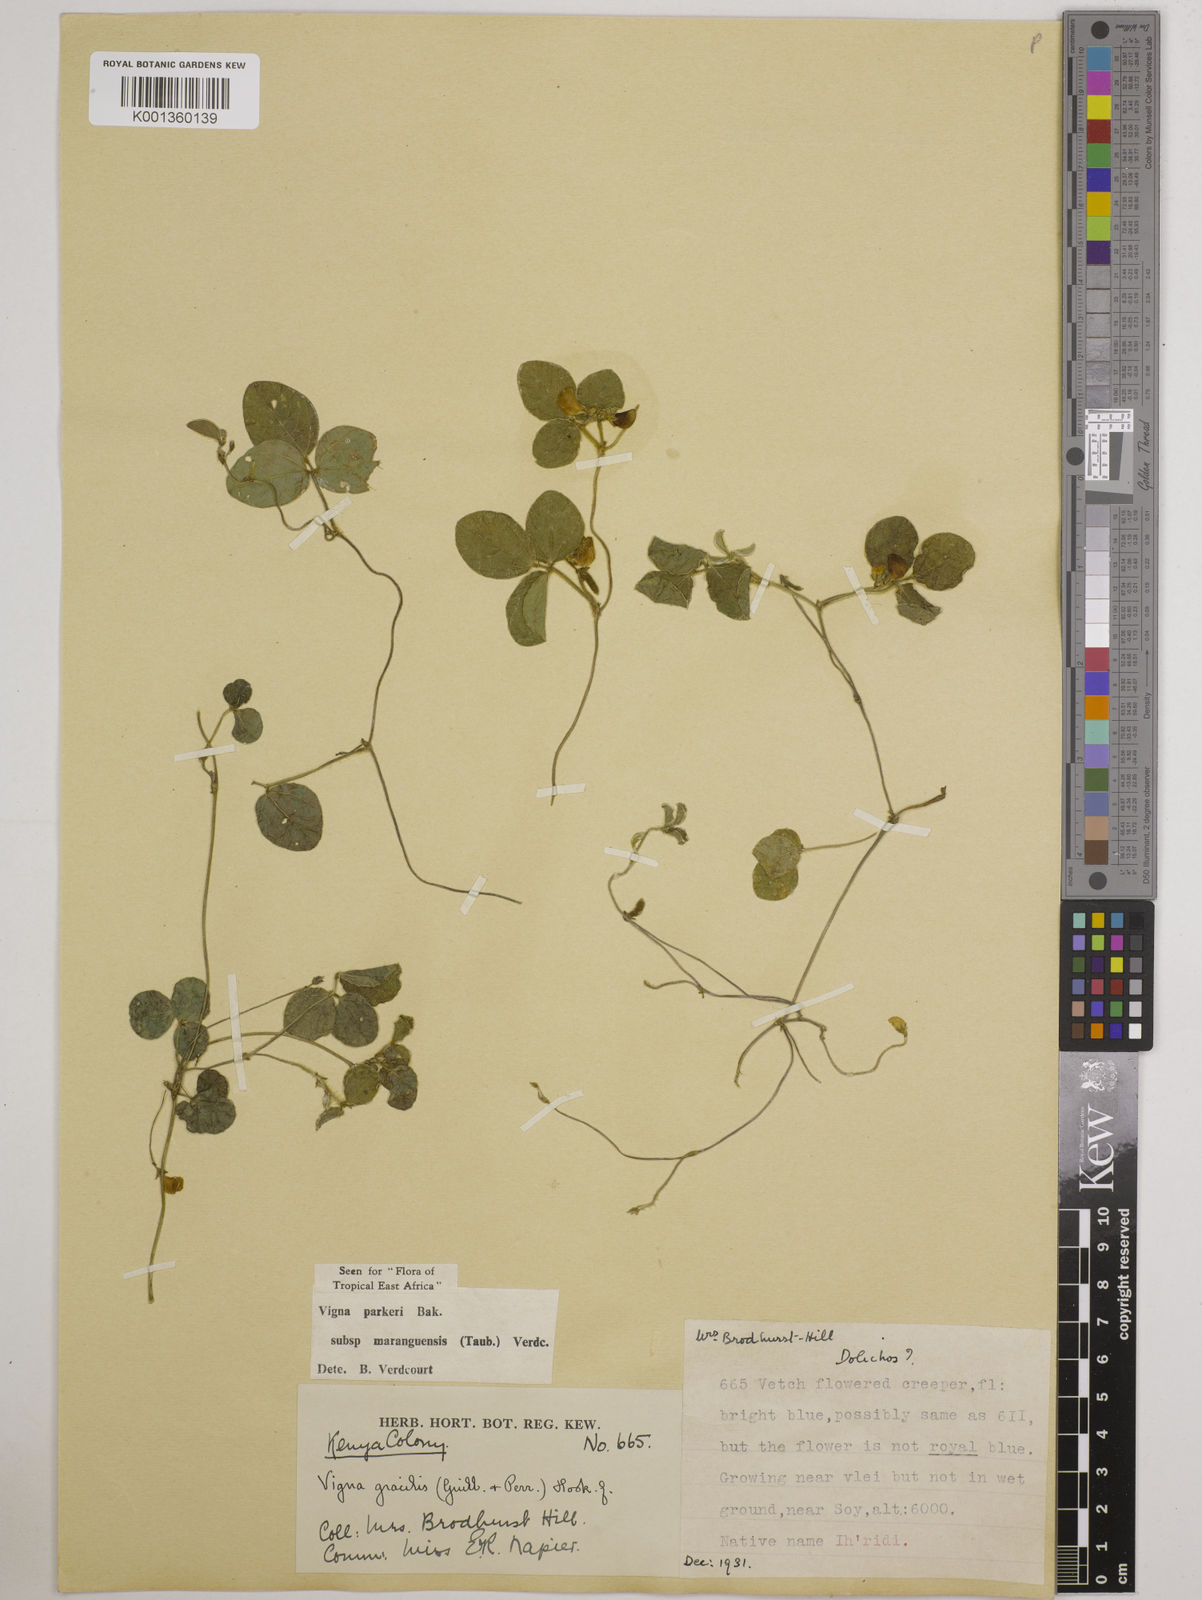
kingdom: Plantae
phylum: Tracheophyta
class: Magnoliopsida
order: Fabales
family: Fabaceae
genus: Vigna
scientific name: Vigna
